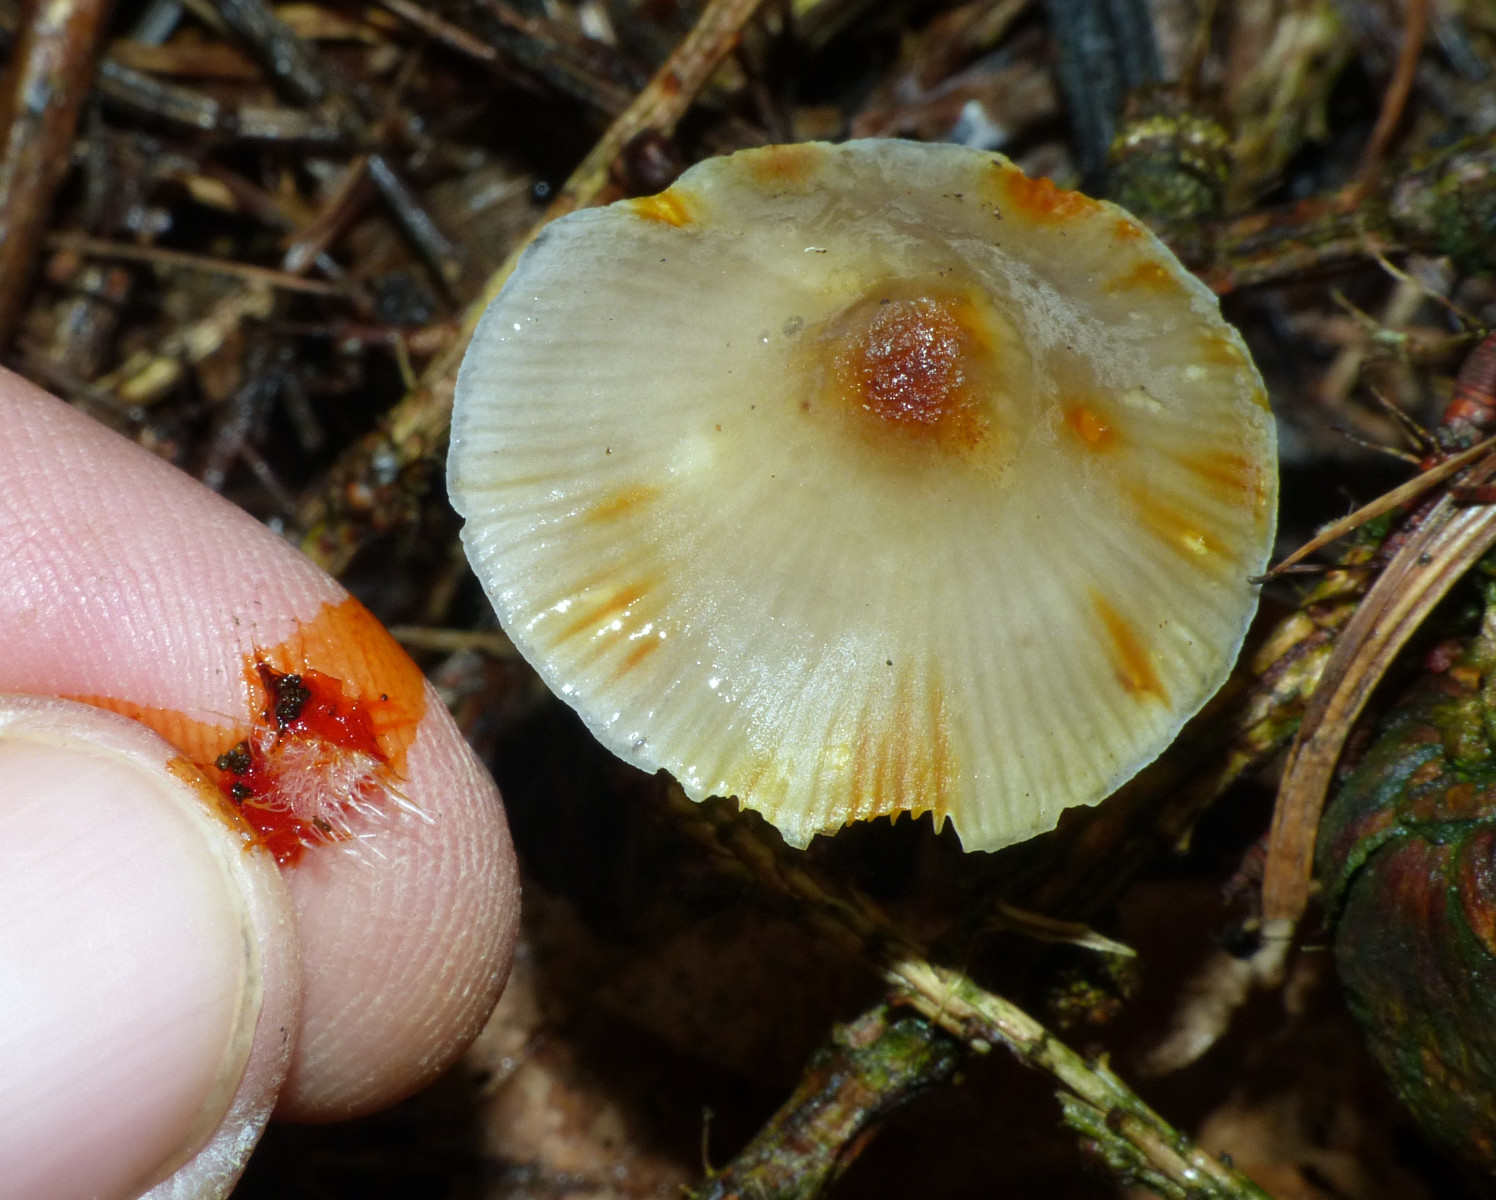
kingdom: Fungi
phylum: Basidiomycota
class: Agaricomycetes
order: Agaricales
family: Mycenaceae
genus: Mycena
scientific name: Mycena crocata
